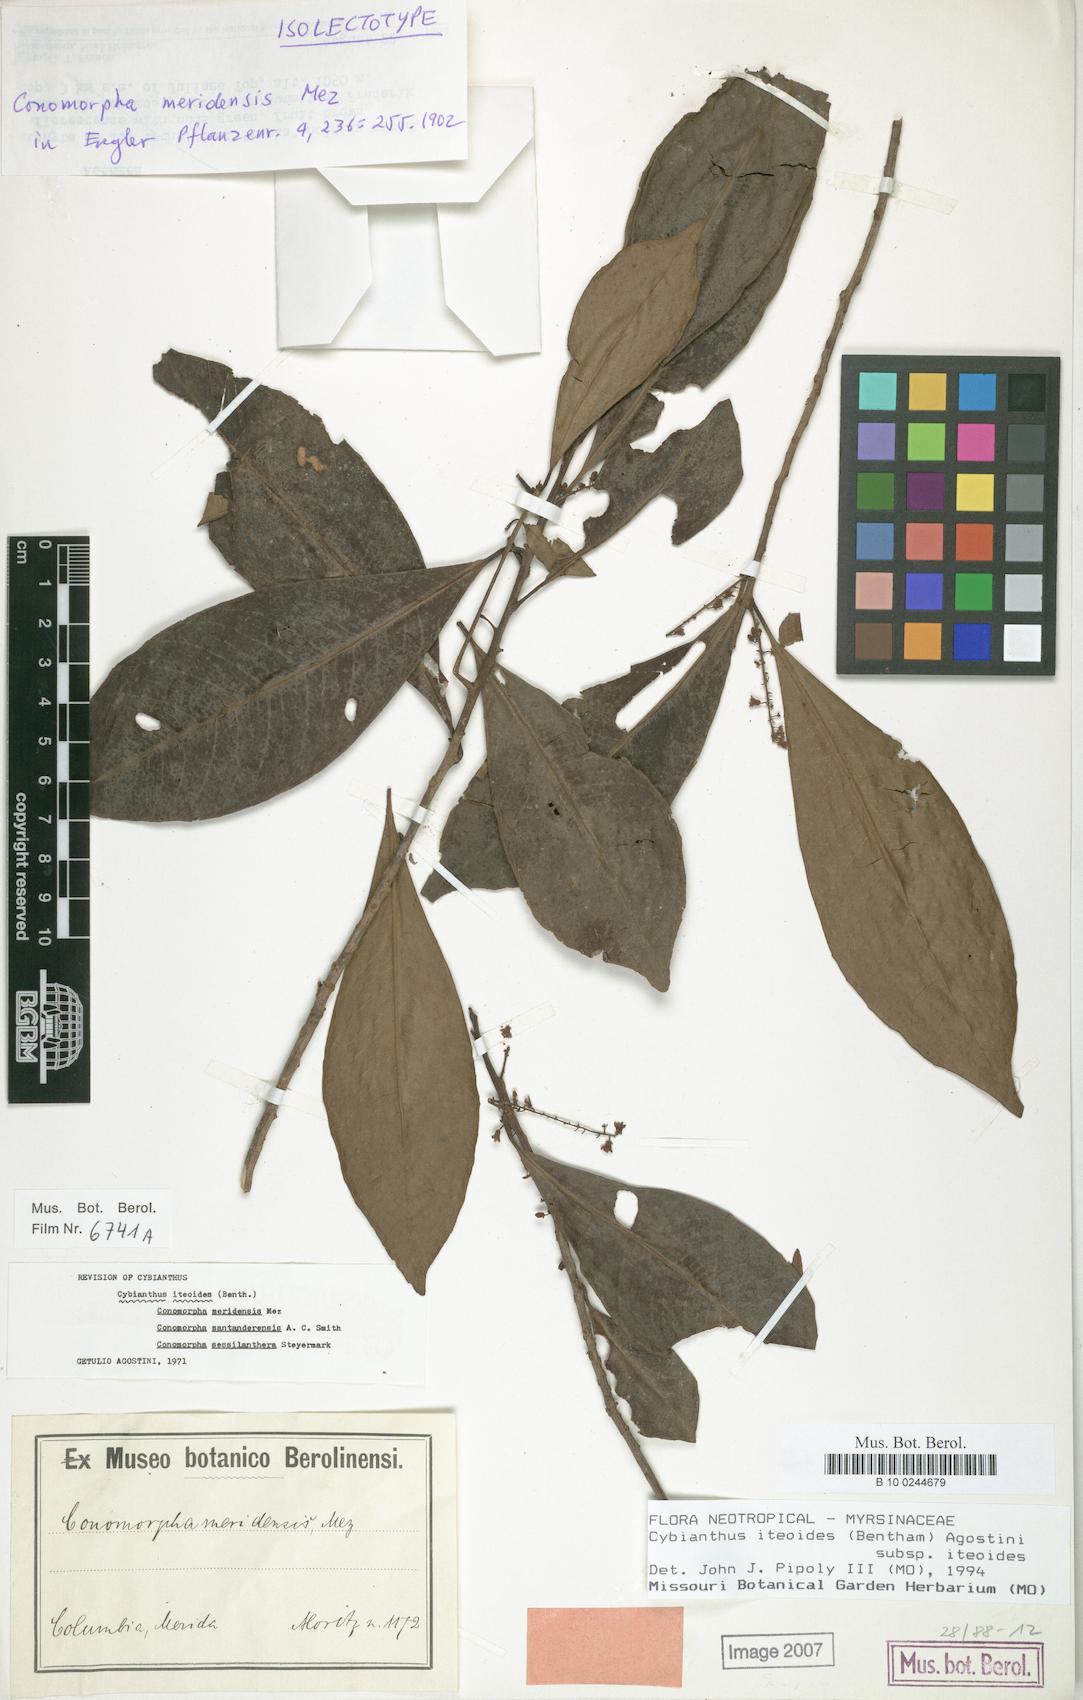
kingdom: Plantae
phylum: Tracheophyta
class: Magnoliopsida
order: Ericales
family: Primulaceae
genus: Cybianthus
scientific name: Cybianthus iteoides
